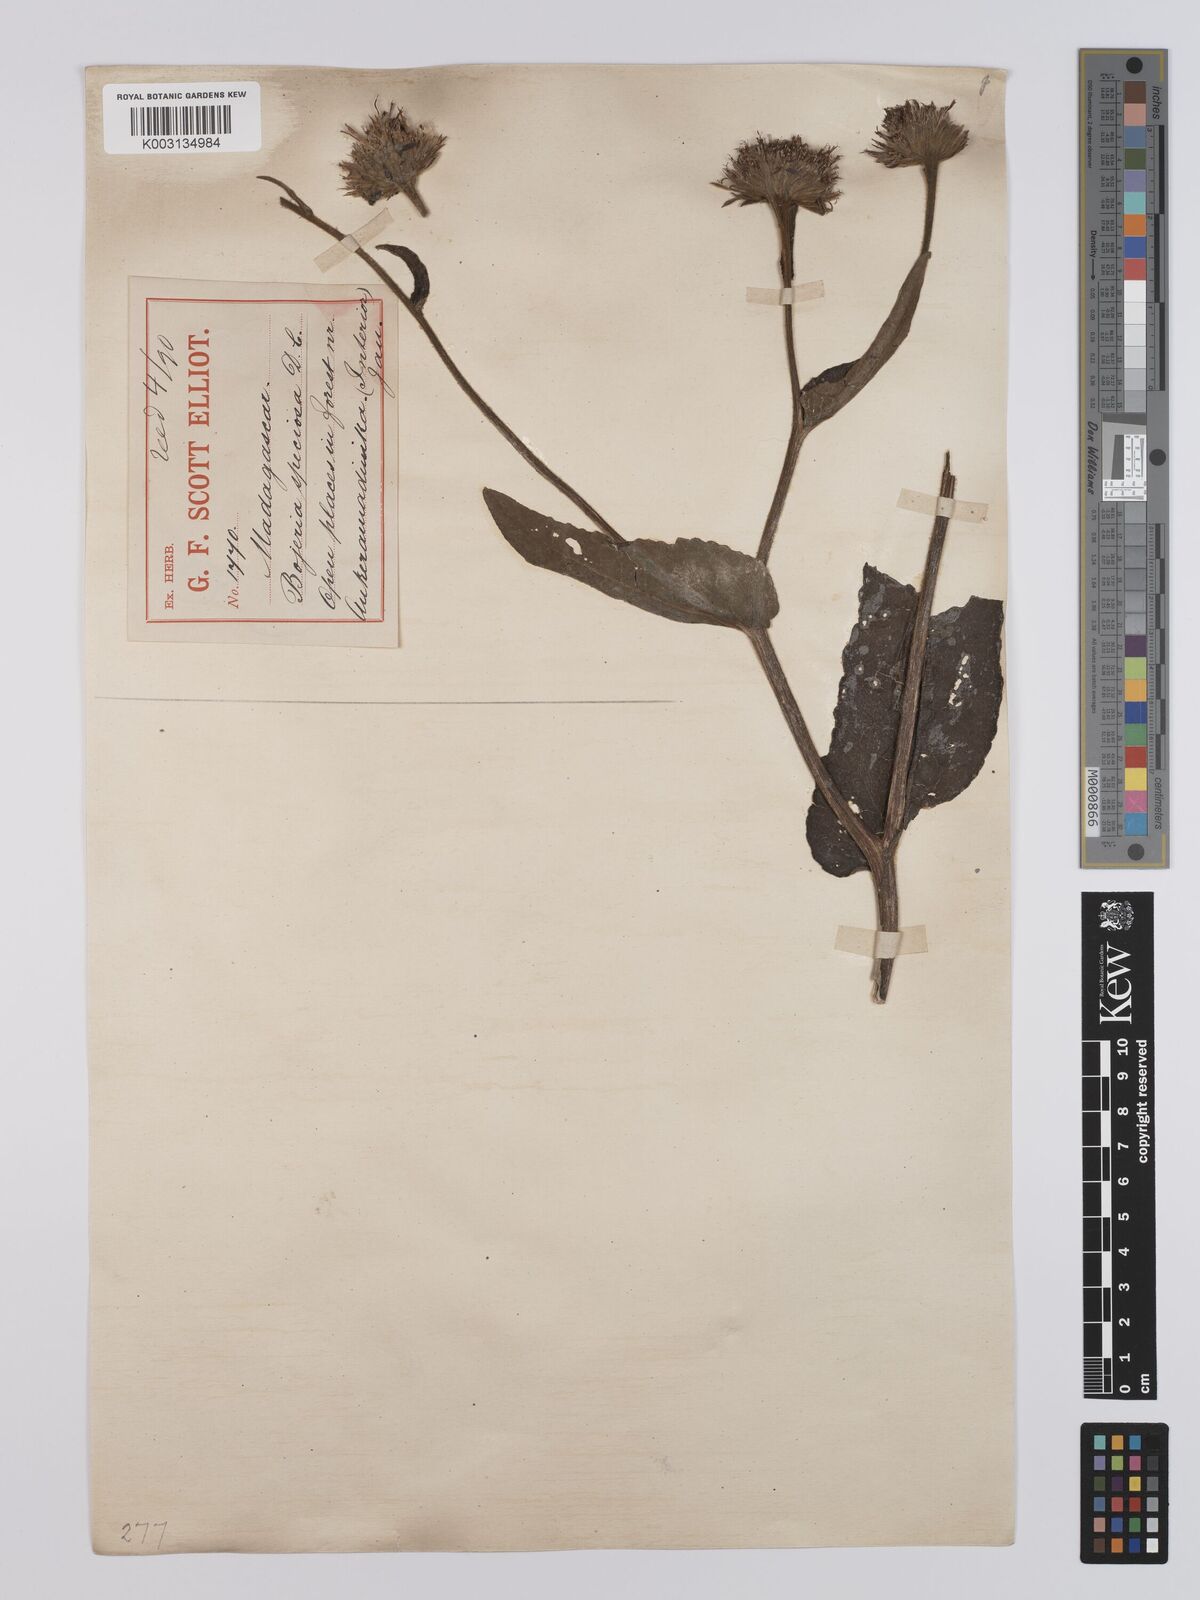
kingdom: Plantae
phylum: Tracheophyta
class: Magnoliopsida
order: Asterales
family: Asteraceae
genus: Inula
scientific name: Inula speciosa
